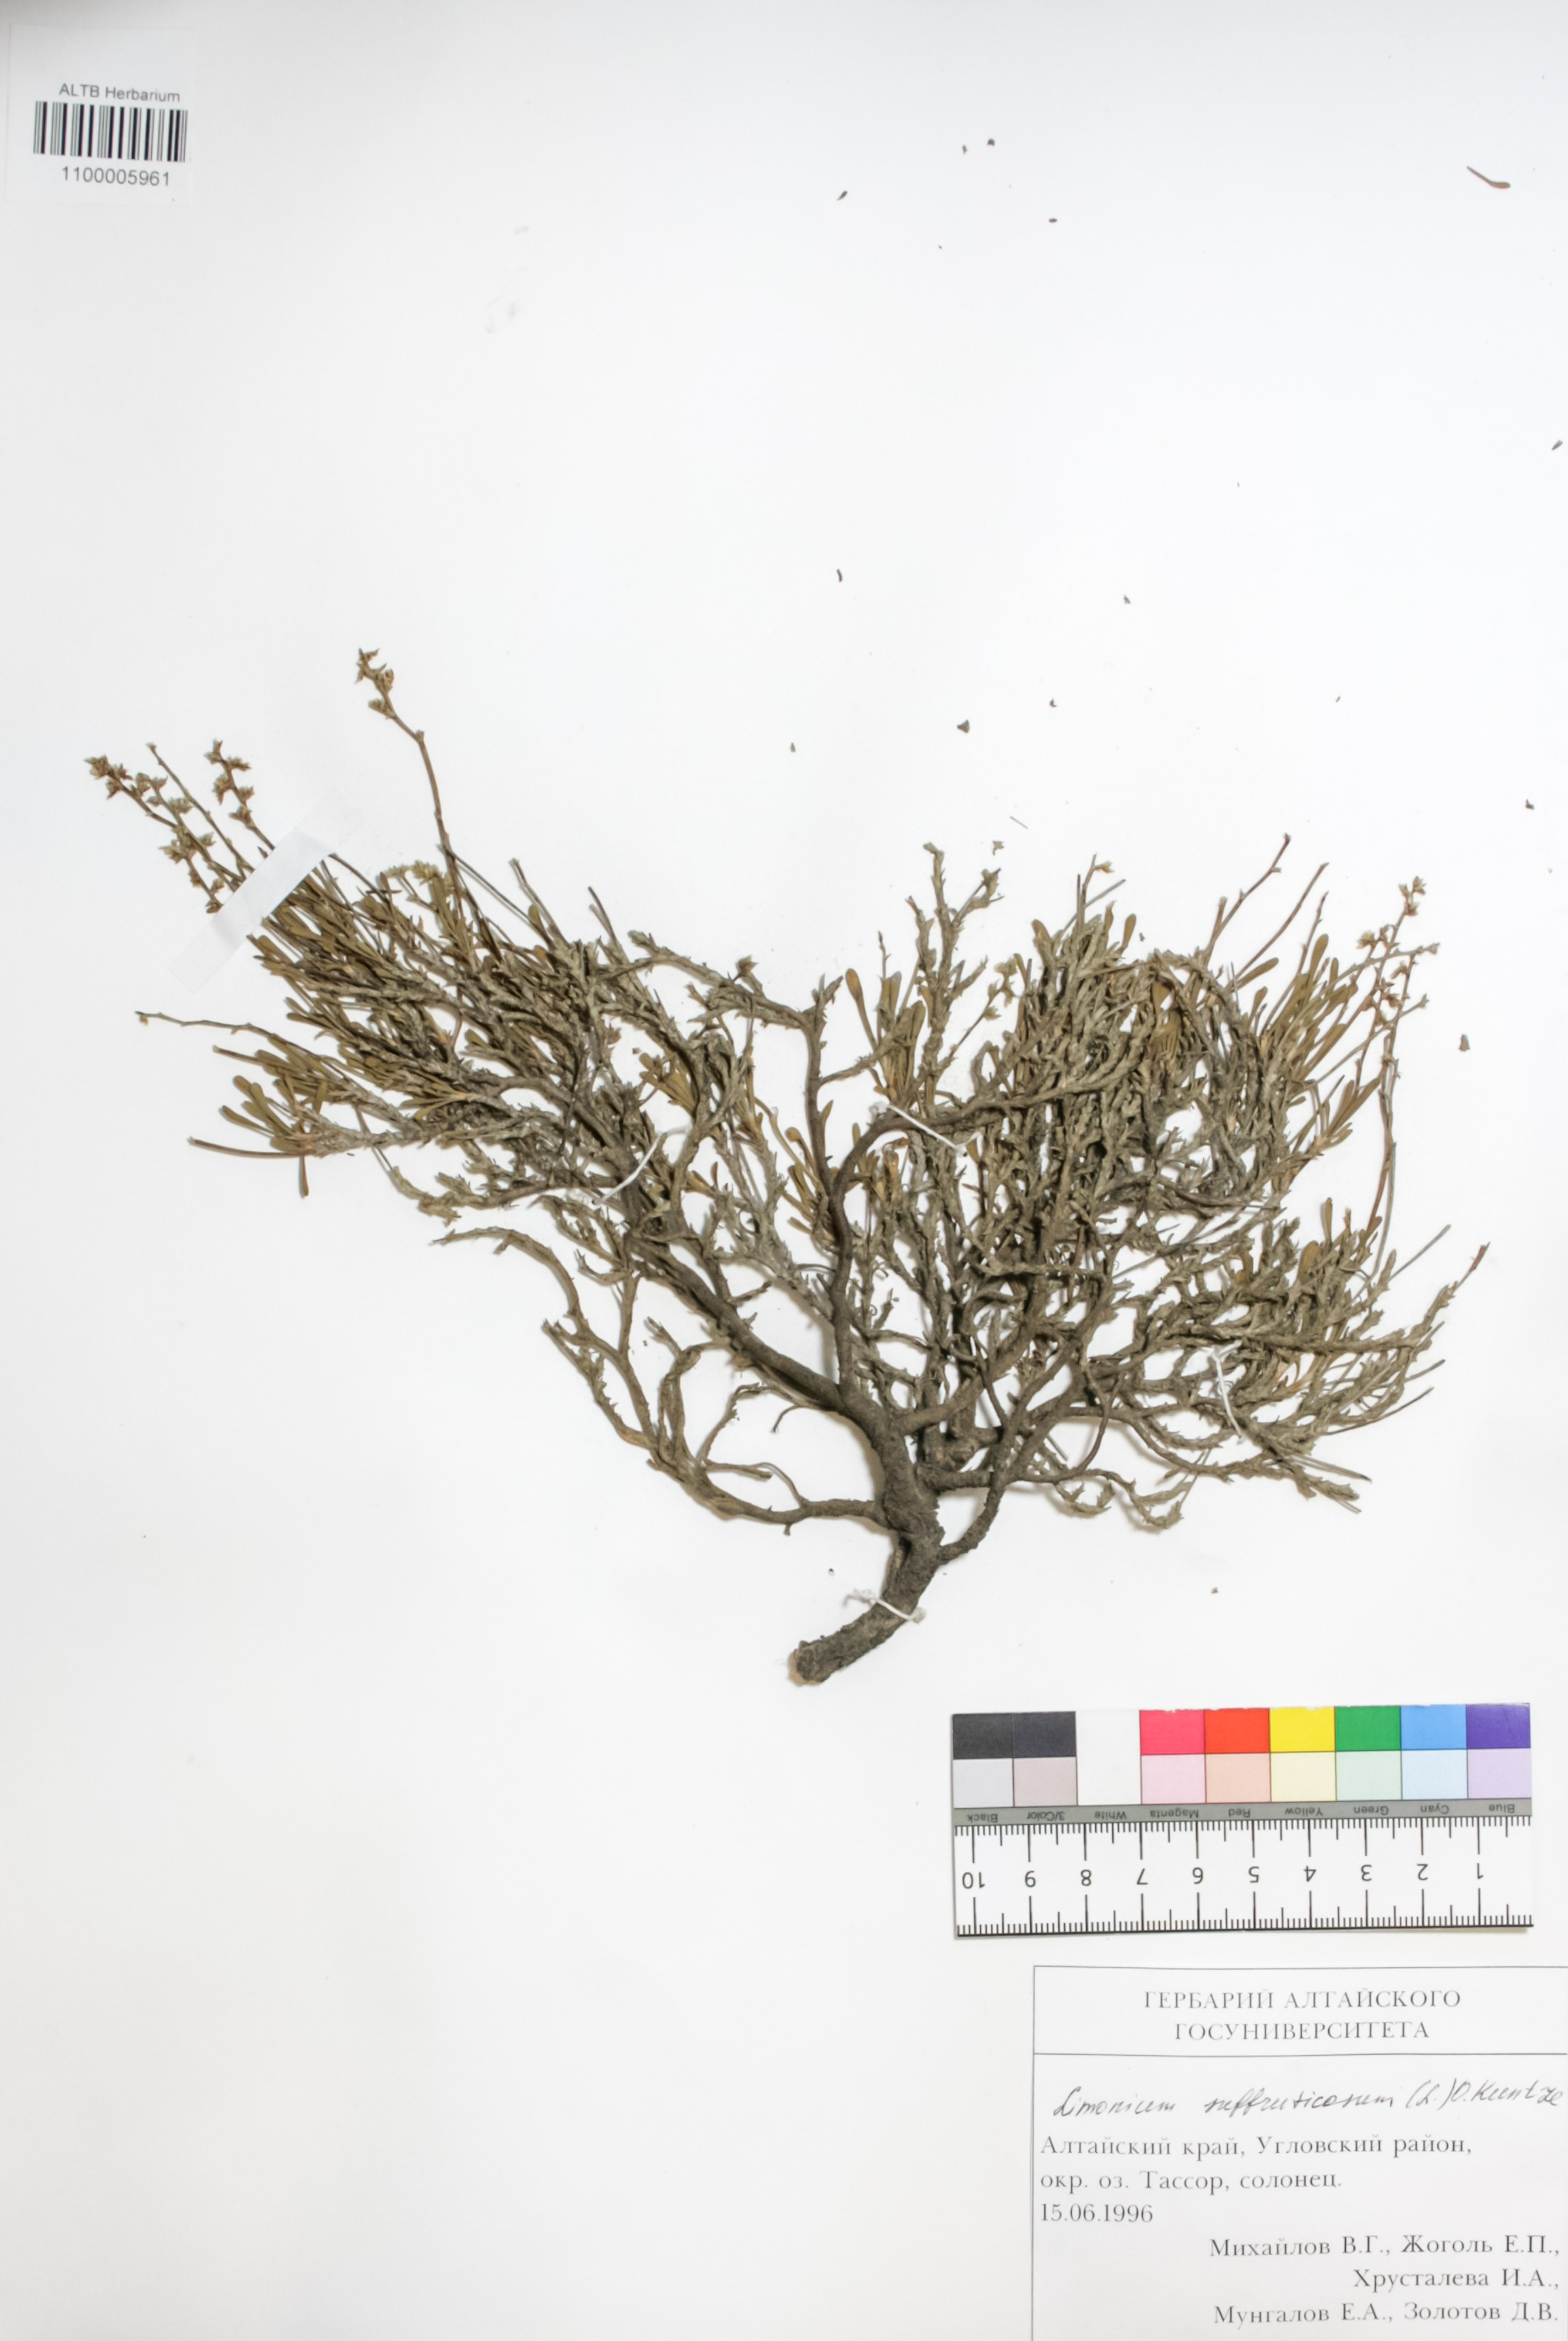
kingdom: Plantae
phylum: Tracheophyta
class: Magnoliopsida
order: Caryophyllales
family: Plumbaginaceae
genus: Limonium
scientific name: Limonium suffruticosum
